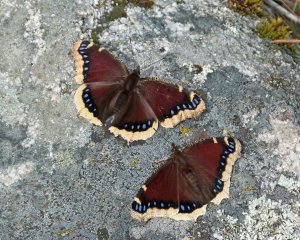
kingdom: Animalia
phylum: Arthropoda
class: Insecta
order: Lepidoptera
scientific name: Lepidoptera
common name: Butterflies
